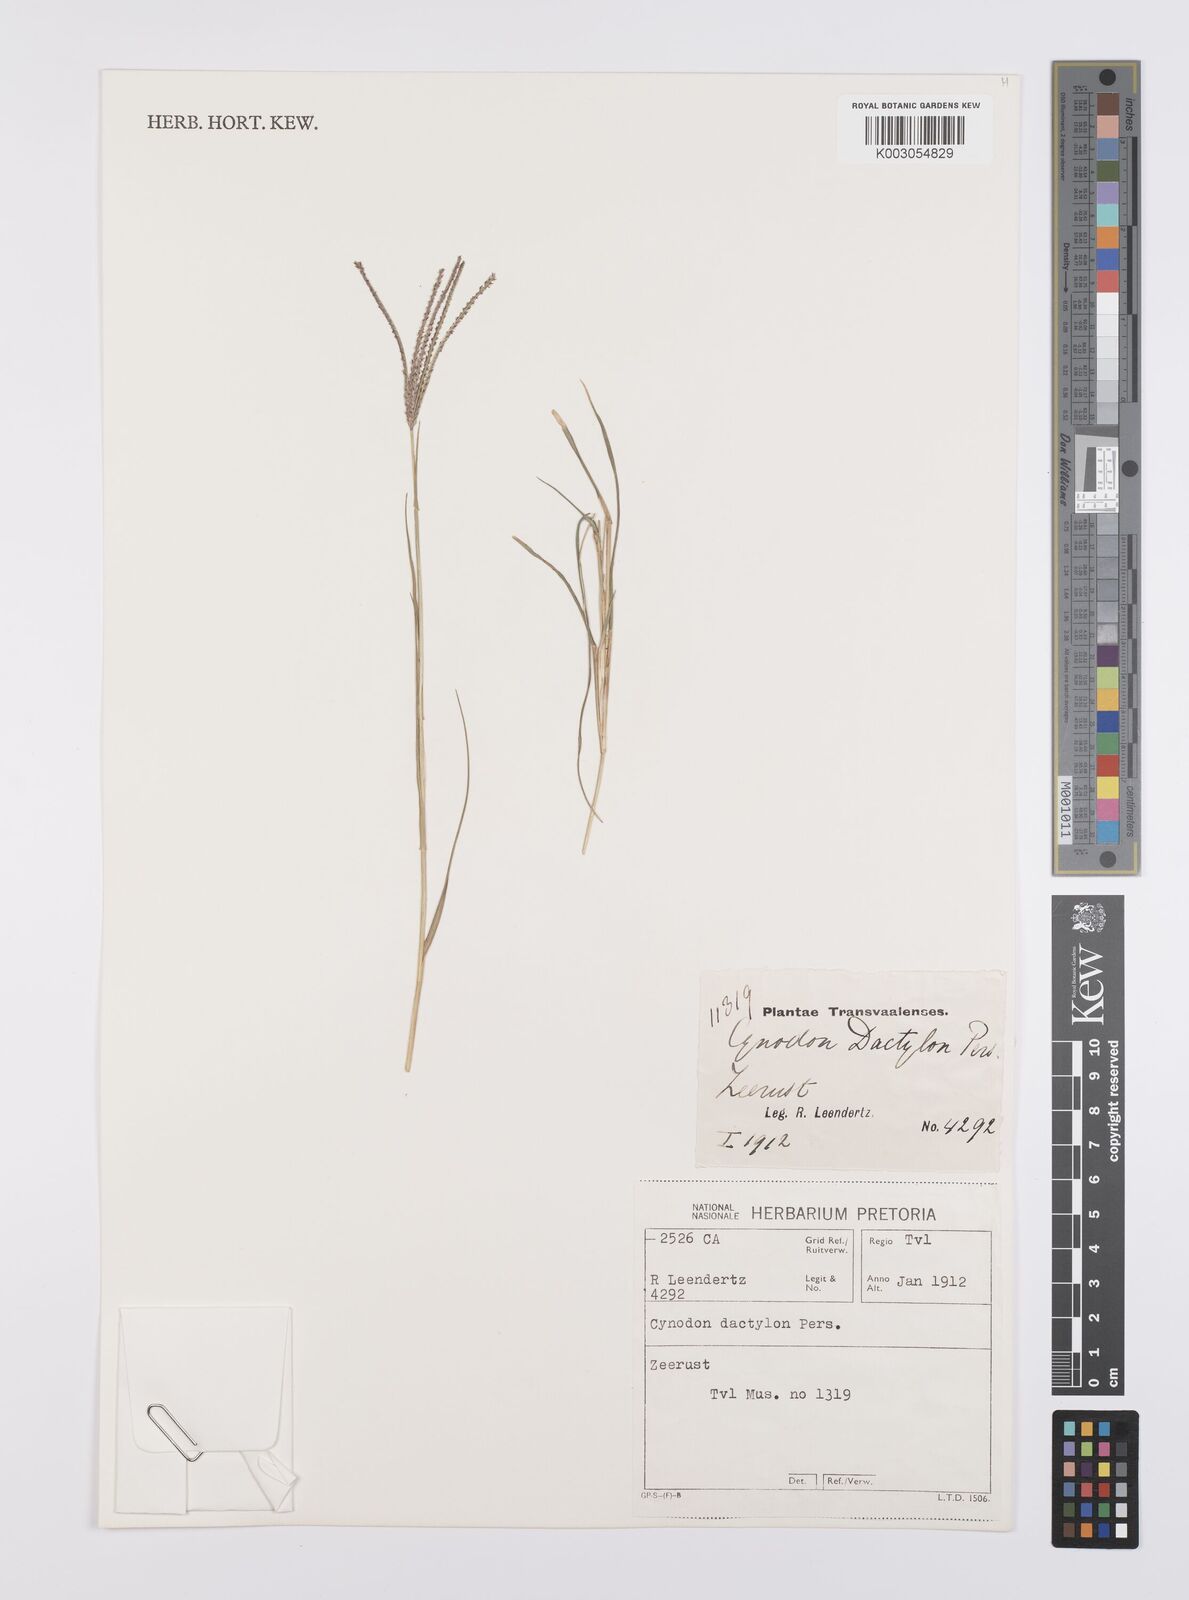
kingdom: Plantae
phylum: Tracheophyta
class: Liliopsida
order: Poales
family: Poaceae
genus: Cynodon
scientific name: Cynodon dactylon
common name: Bermuda grass
